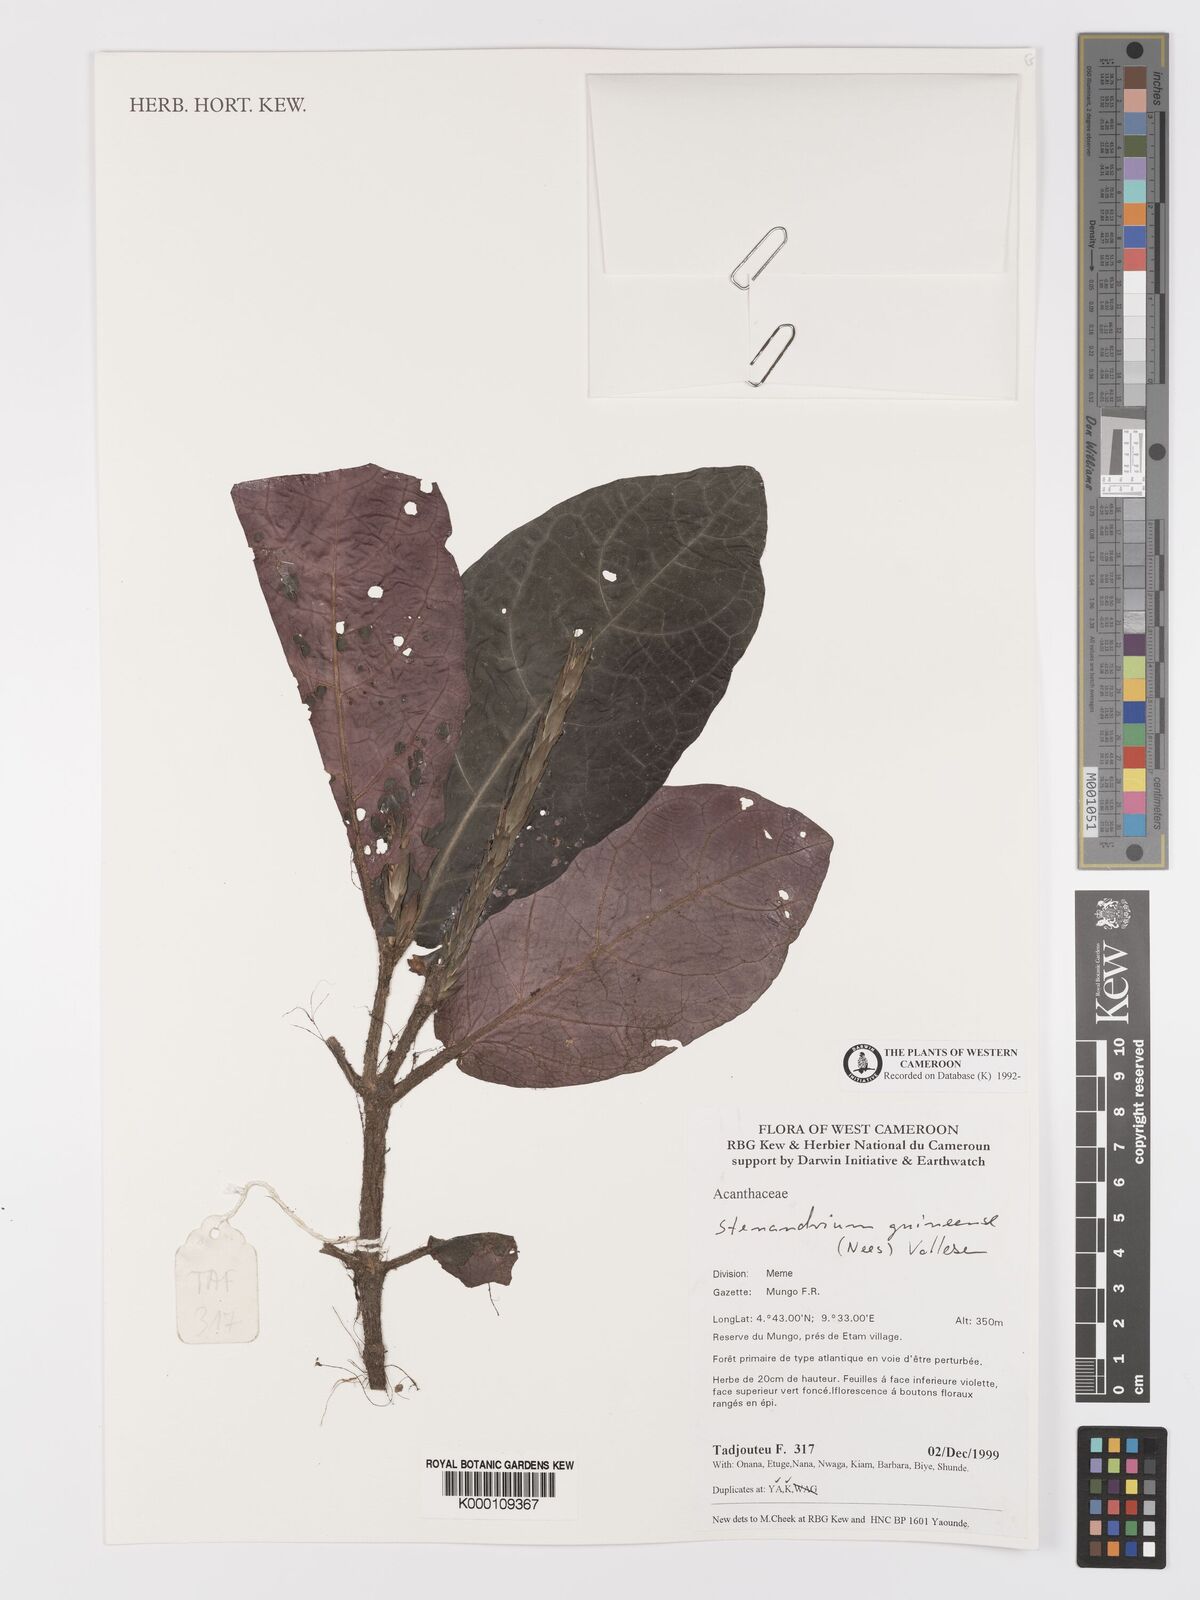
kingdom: Plantae
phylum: Tracheophyta
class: Magnoliopsida
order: Lamiales
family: Acanthaceae
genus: Stenandriopsis
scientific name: Stenandriopsis guineensis
